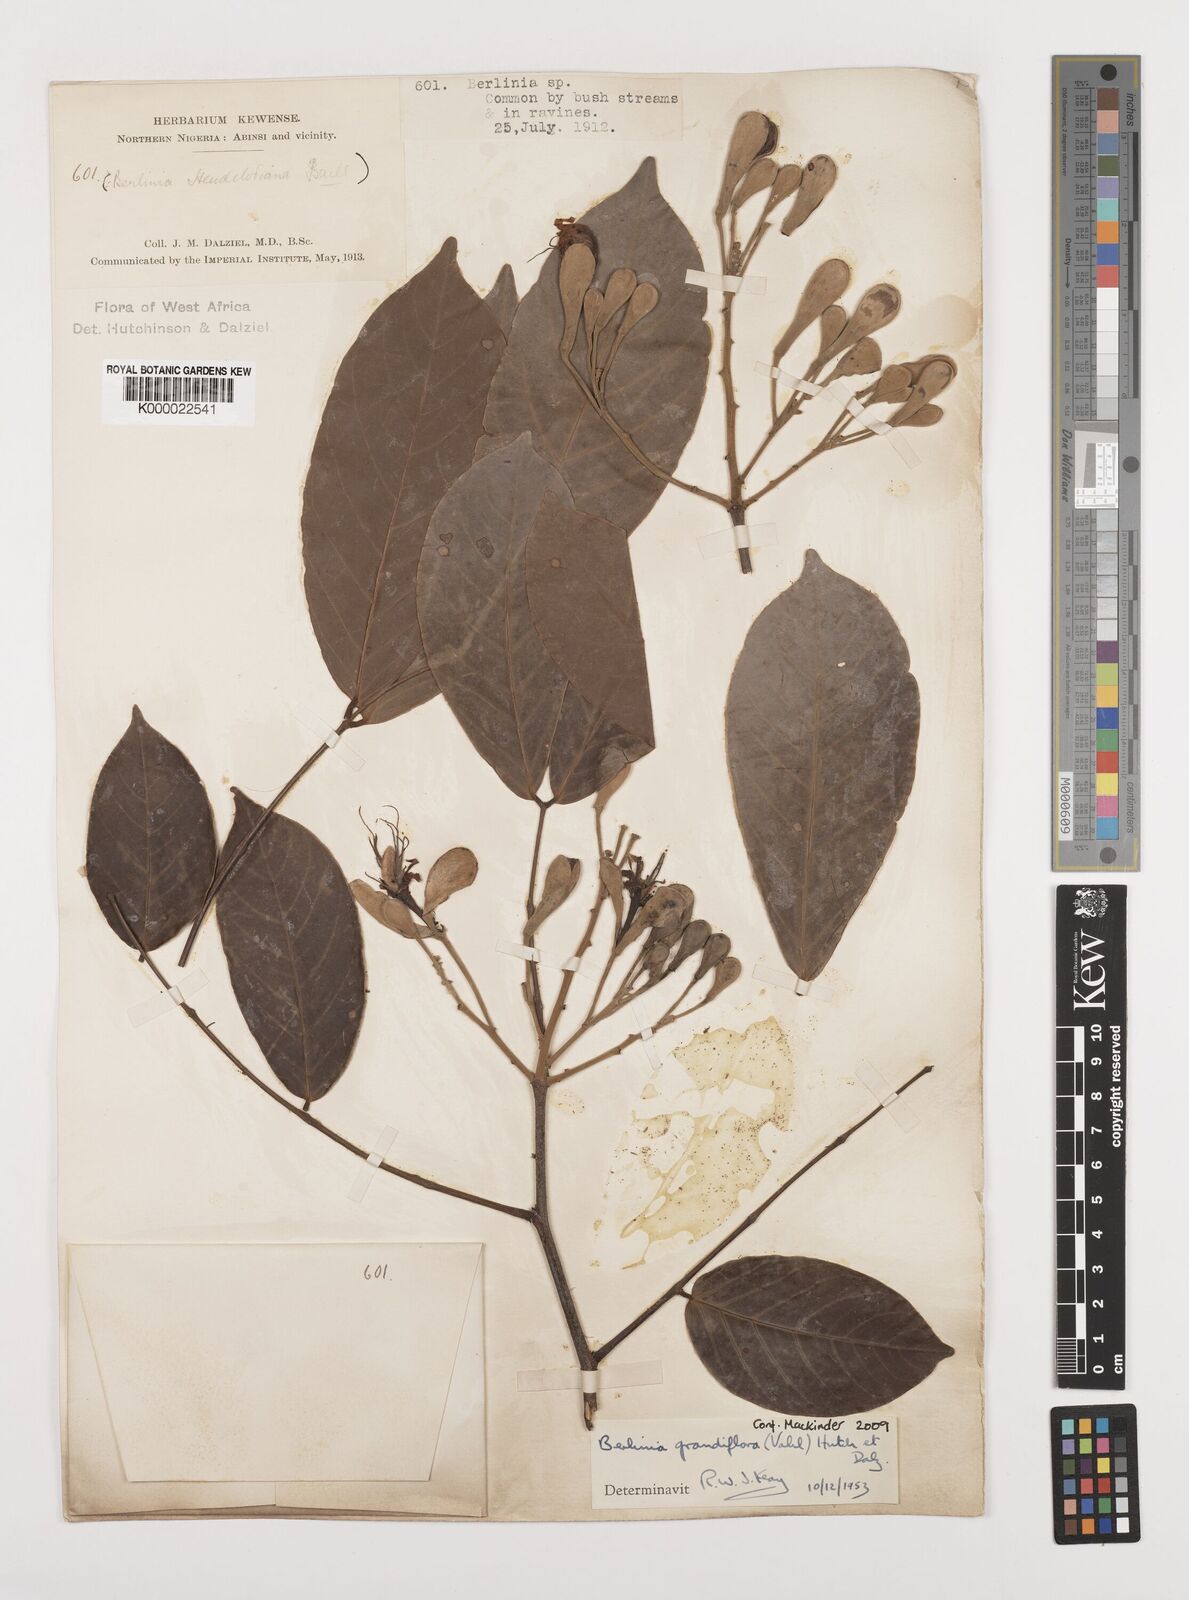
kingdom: Plantae
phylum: Tracheophyta
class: Magnoliopsida
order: Fabales
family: Fabaceae
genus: Berlinia
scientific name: Berlinia grandiflora
